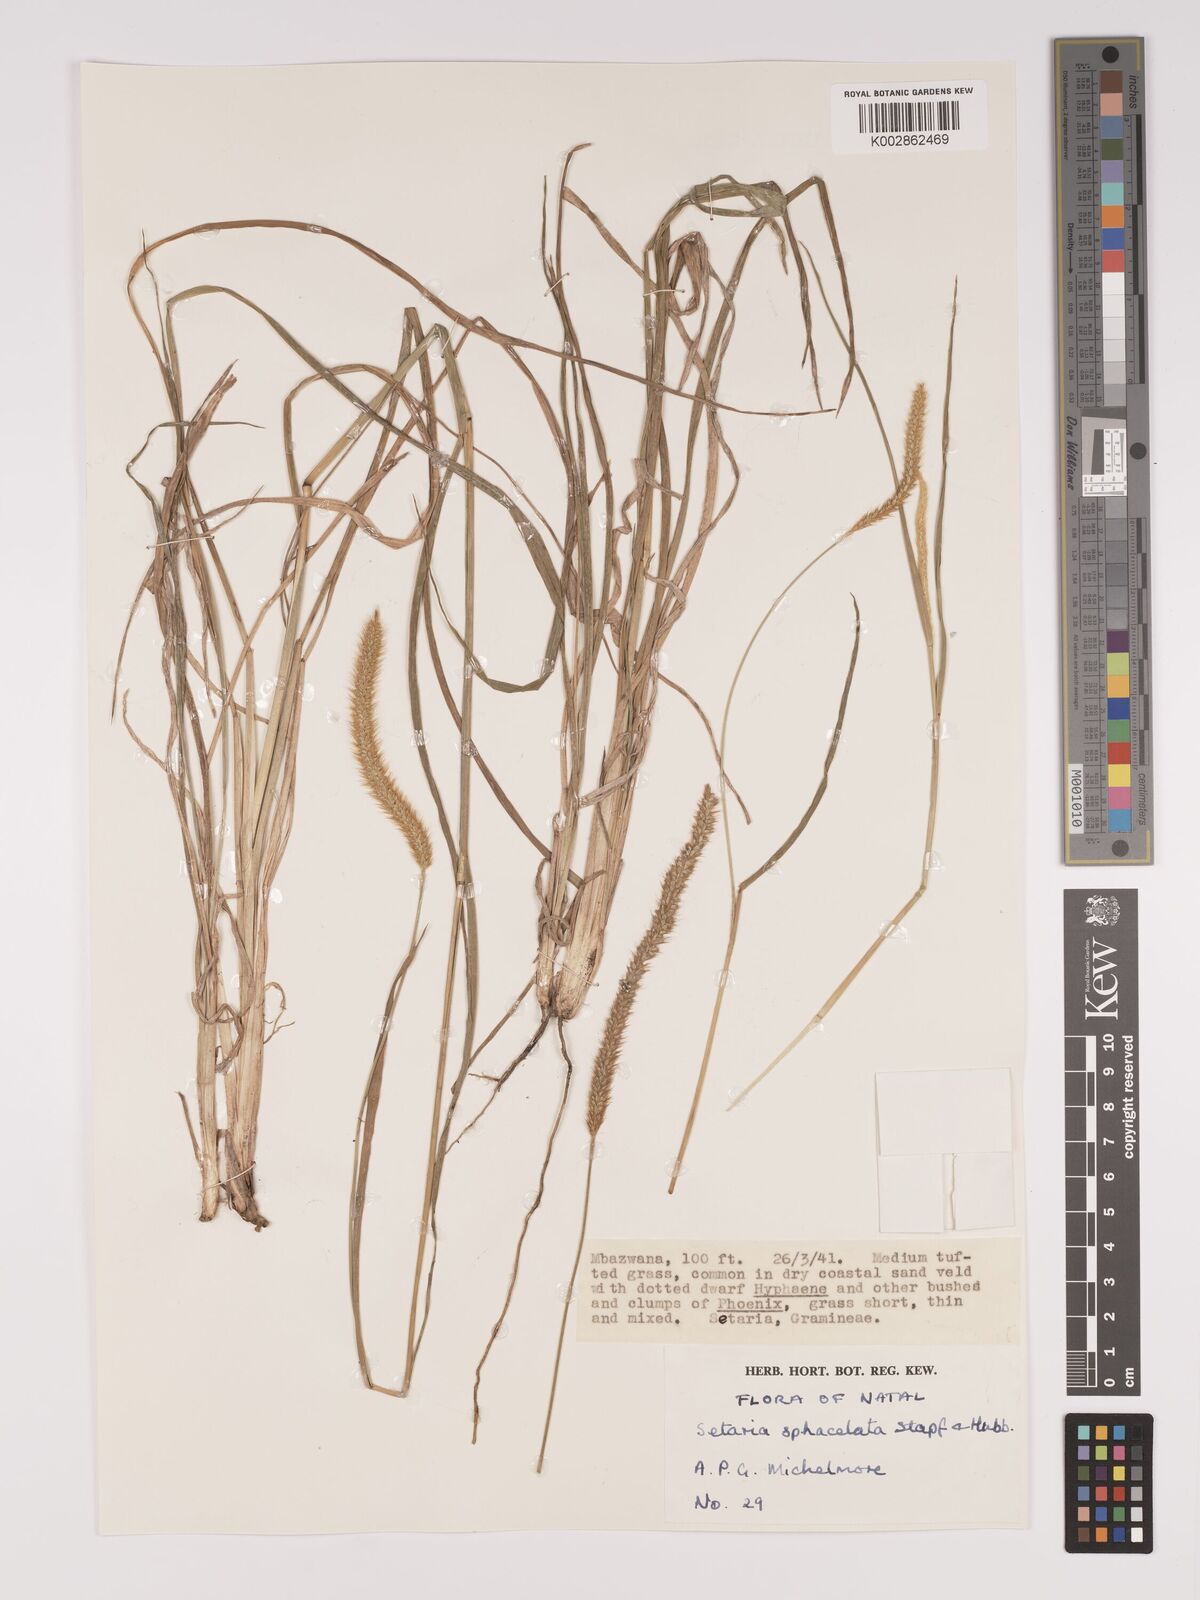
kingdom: Plantae
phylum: Tracheophyta
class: Liliopsida
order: Poales
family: Poaceae
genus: Setaria
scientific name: Setaria sphacelata
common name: African bristlegrass
